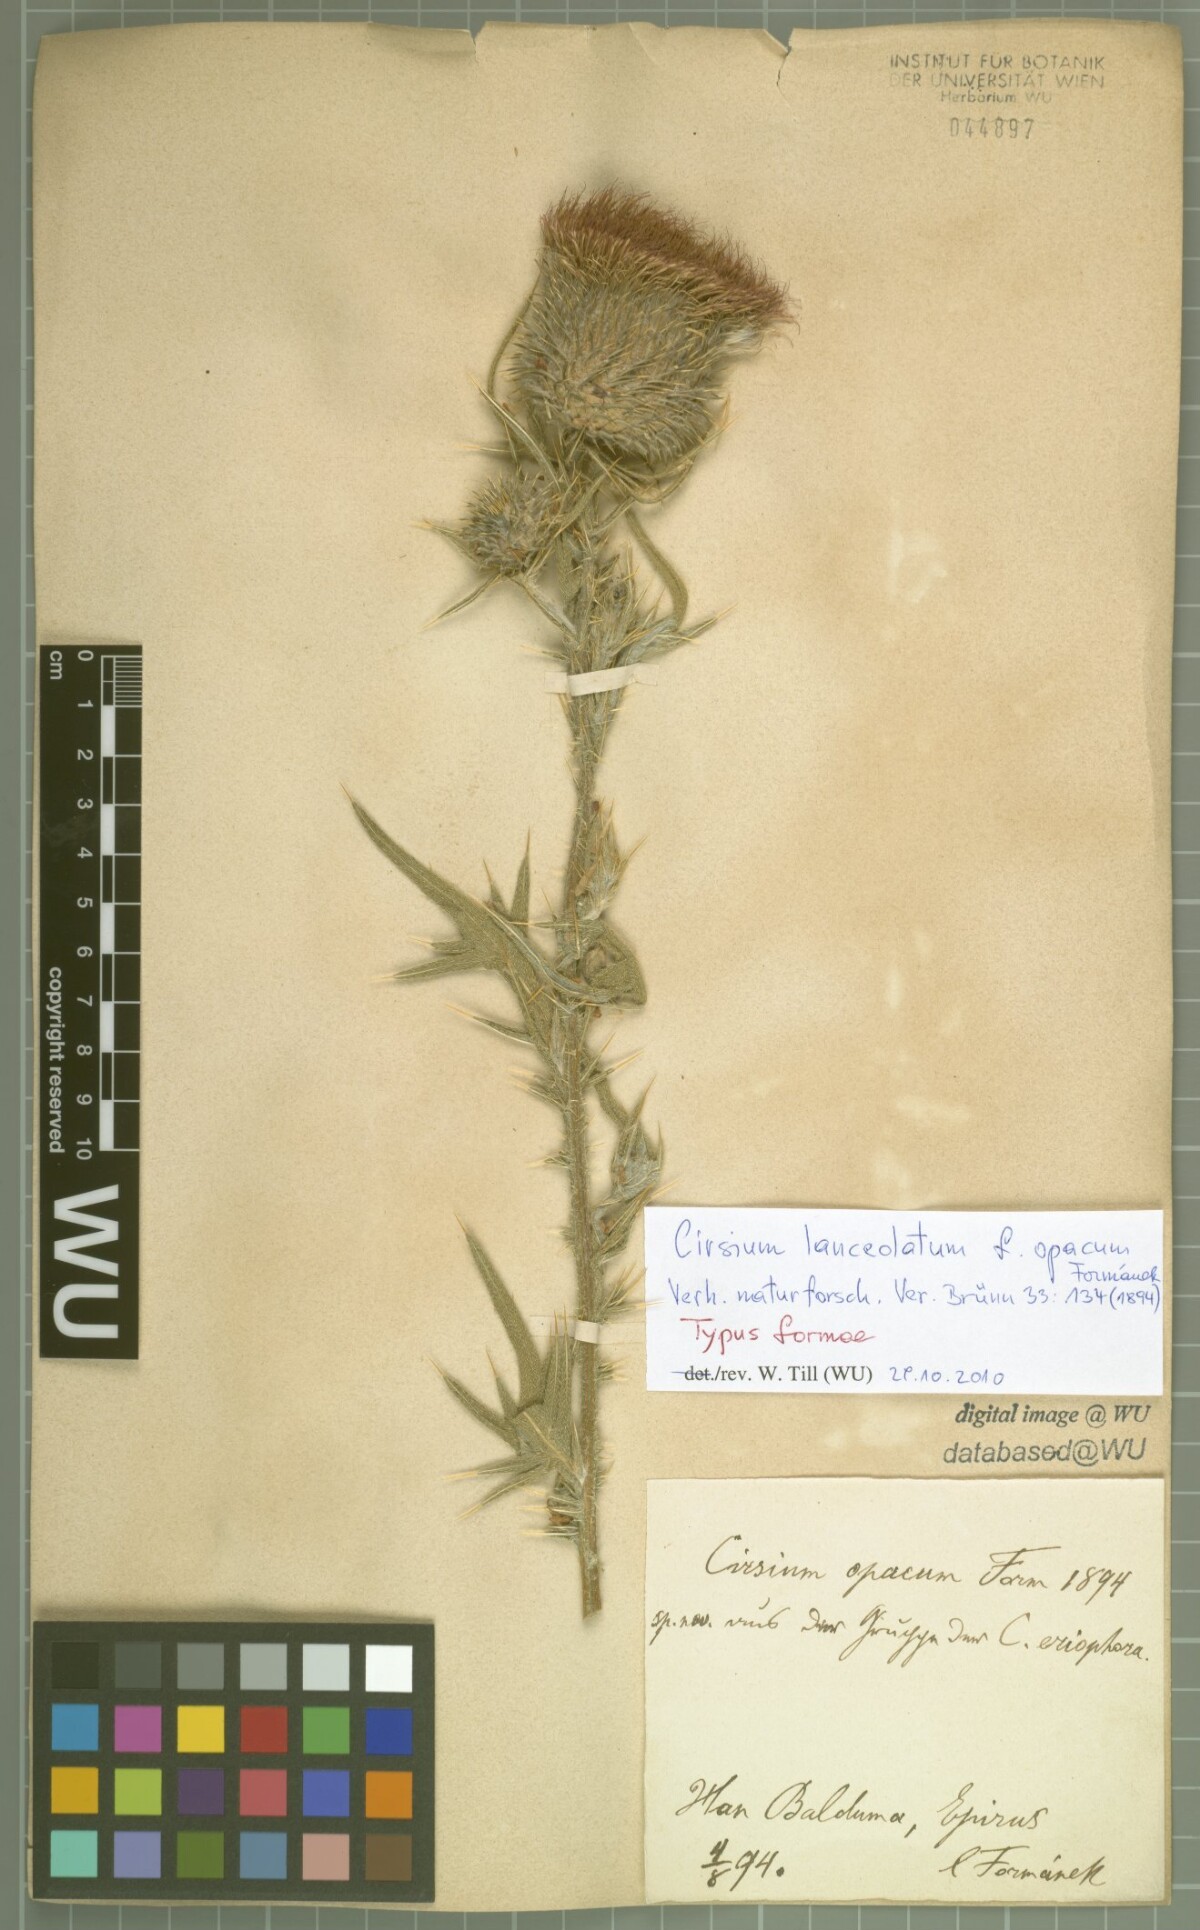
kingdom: Plantae
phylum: Tracheophyta
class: Magnoliopsida
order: Asterales
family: Asteraceae
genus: Cirsium
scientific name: Cirsium
